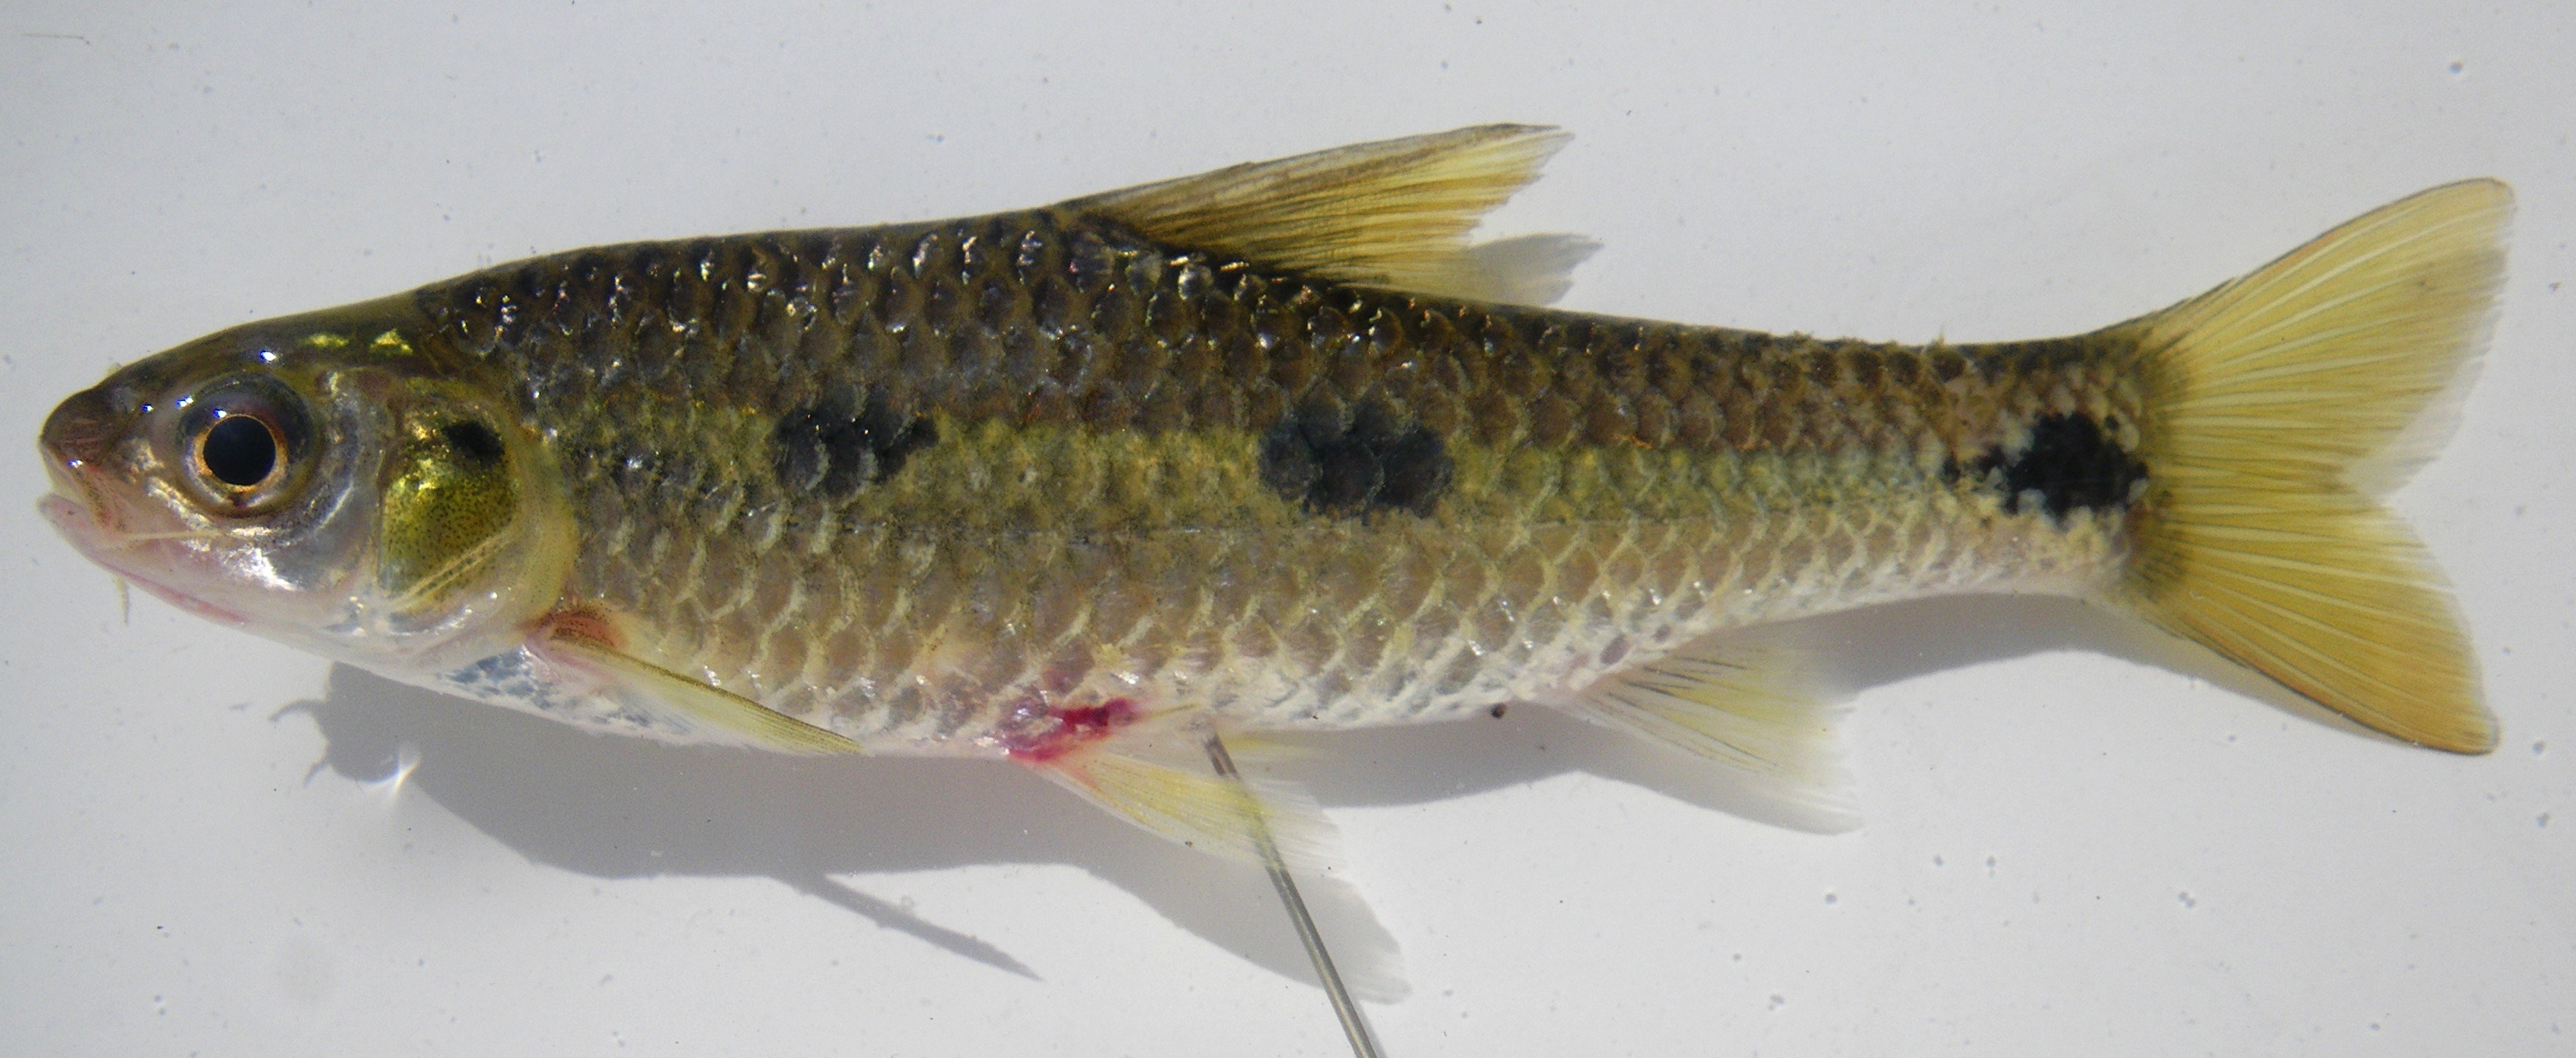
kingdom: Animalia
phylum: Chordata
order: Cypriniformes
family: Cyprinidae
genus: Enteromius
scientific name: Enteromius trimaculatus
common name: Threespot barb
